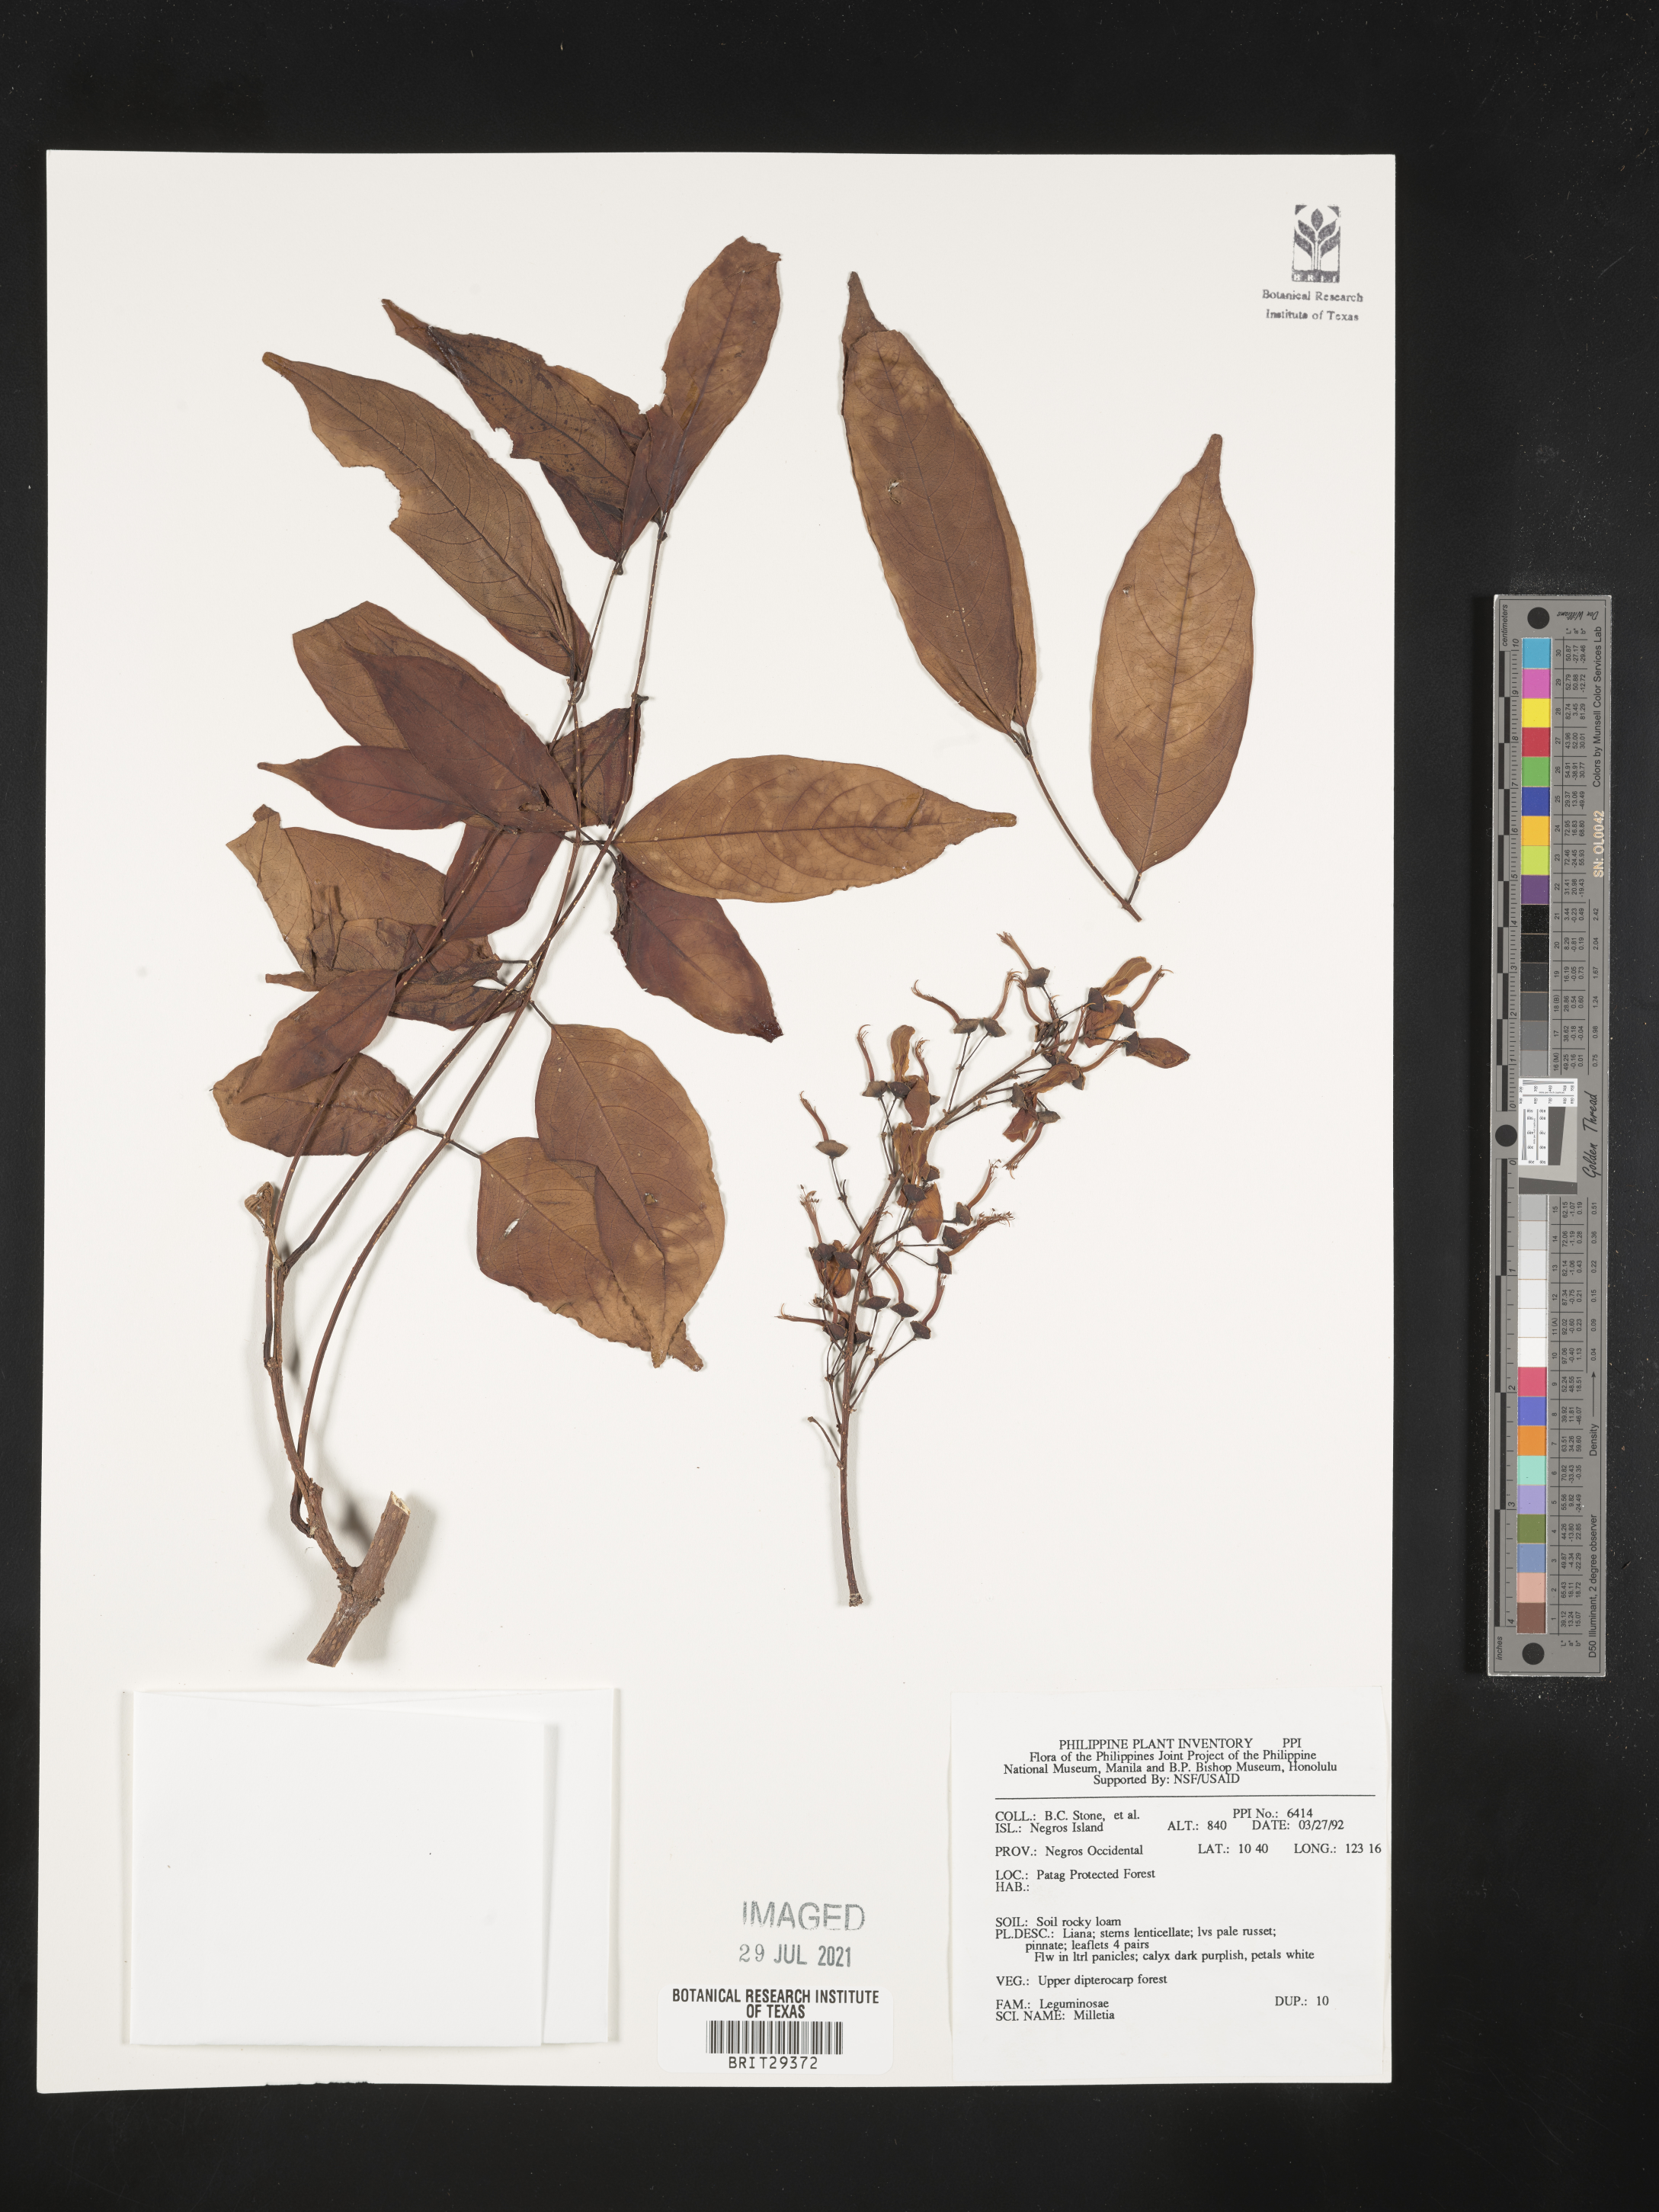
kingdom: Plantae
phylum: Tracheophyta
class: Magnoliopsida
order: Fabales
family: Fabaceae
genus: Millettia
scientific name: Millettia
